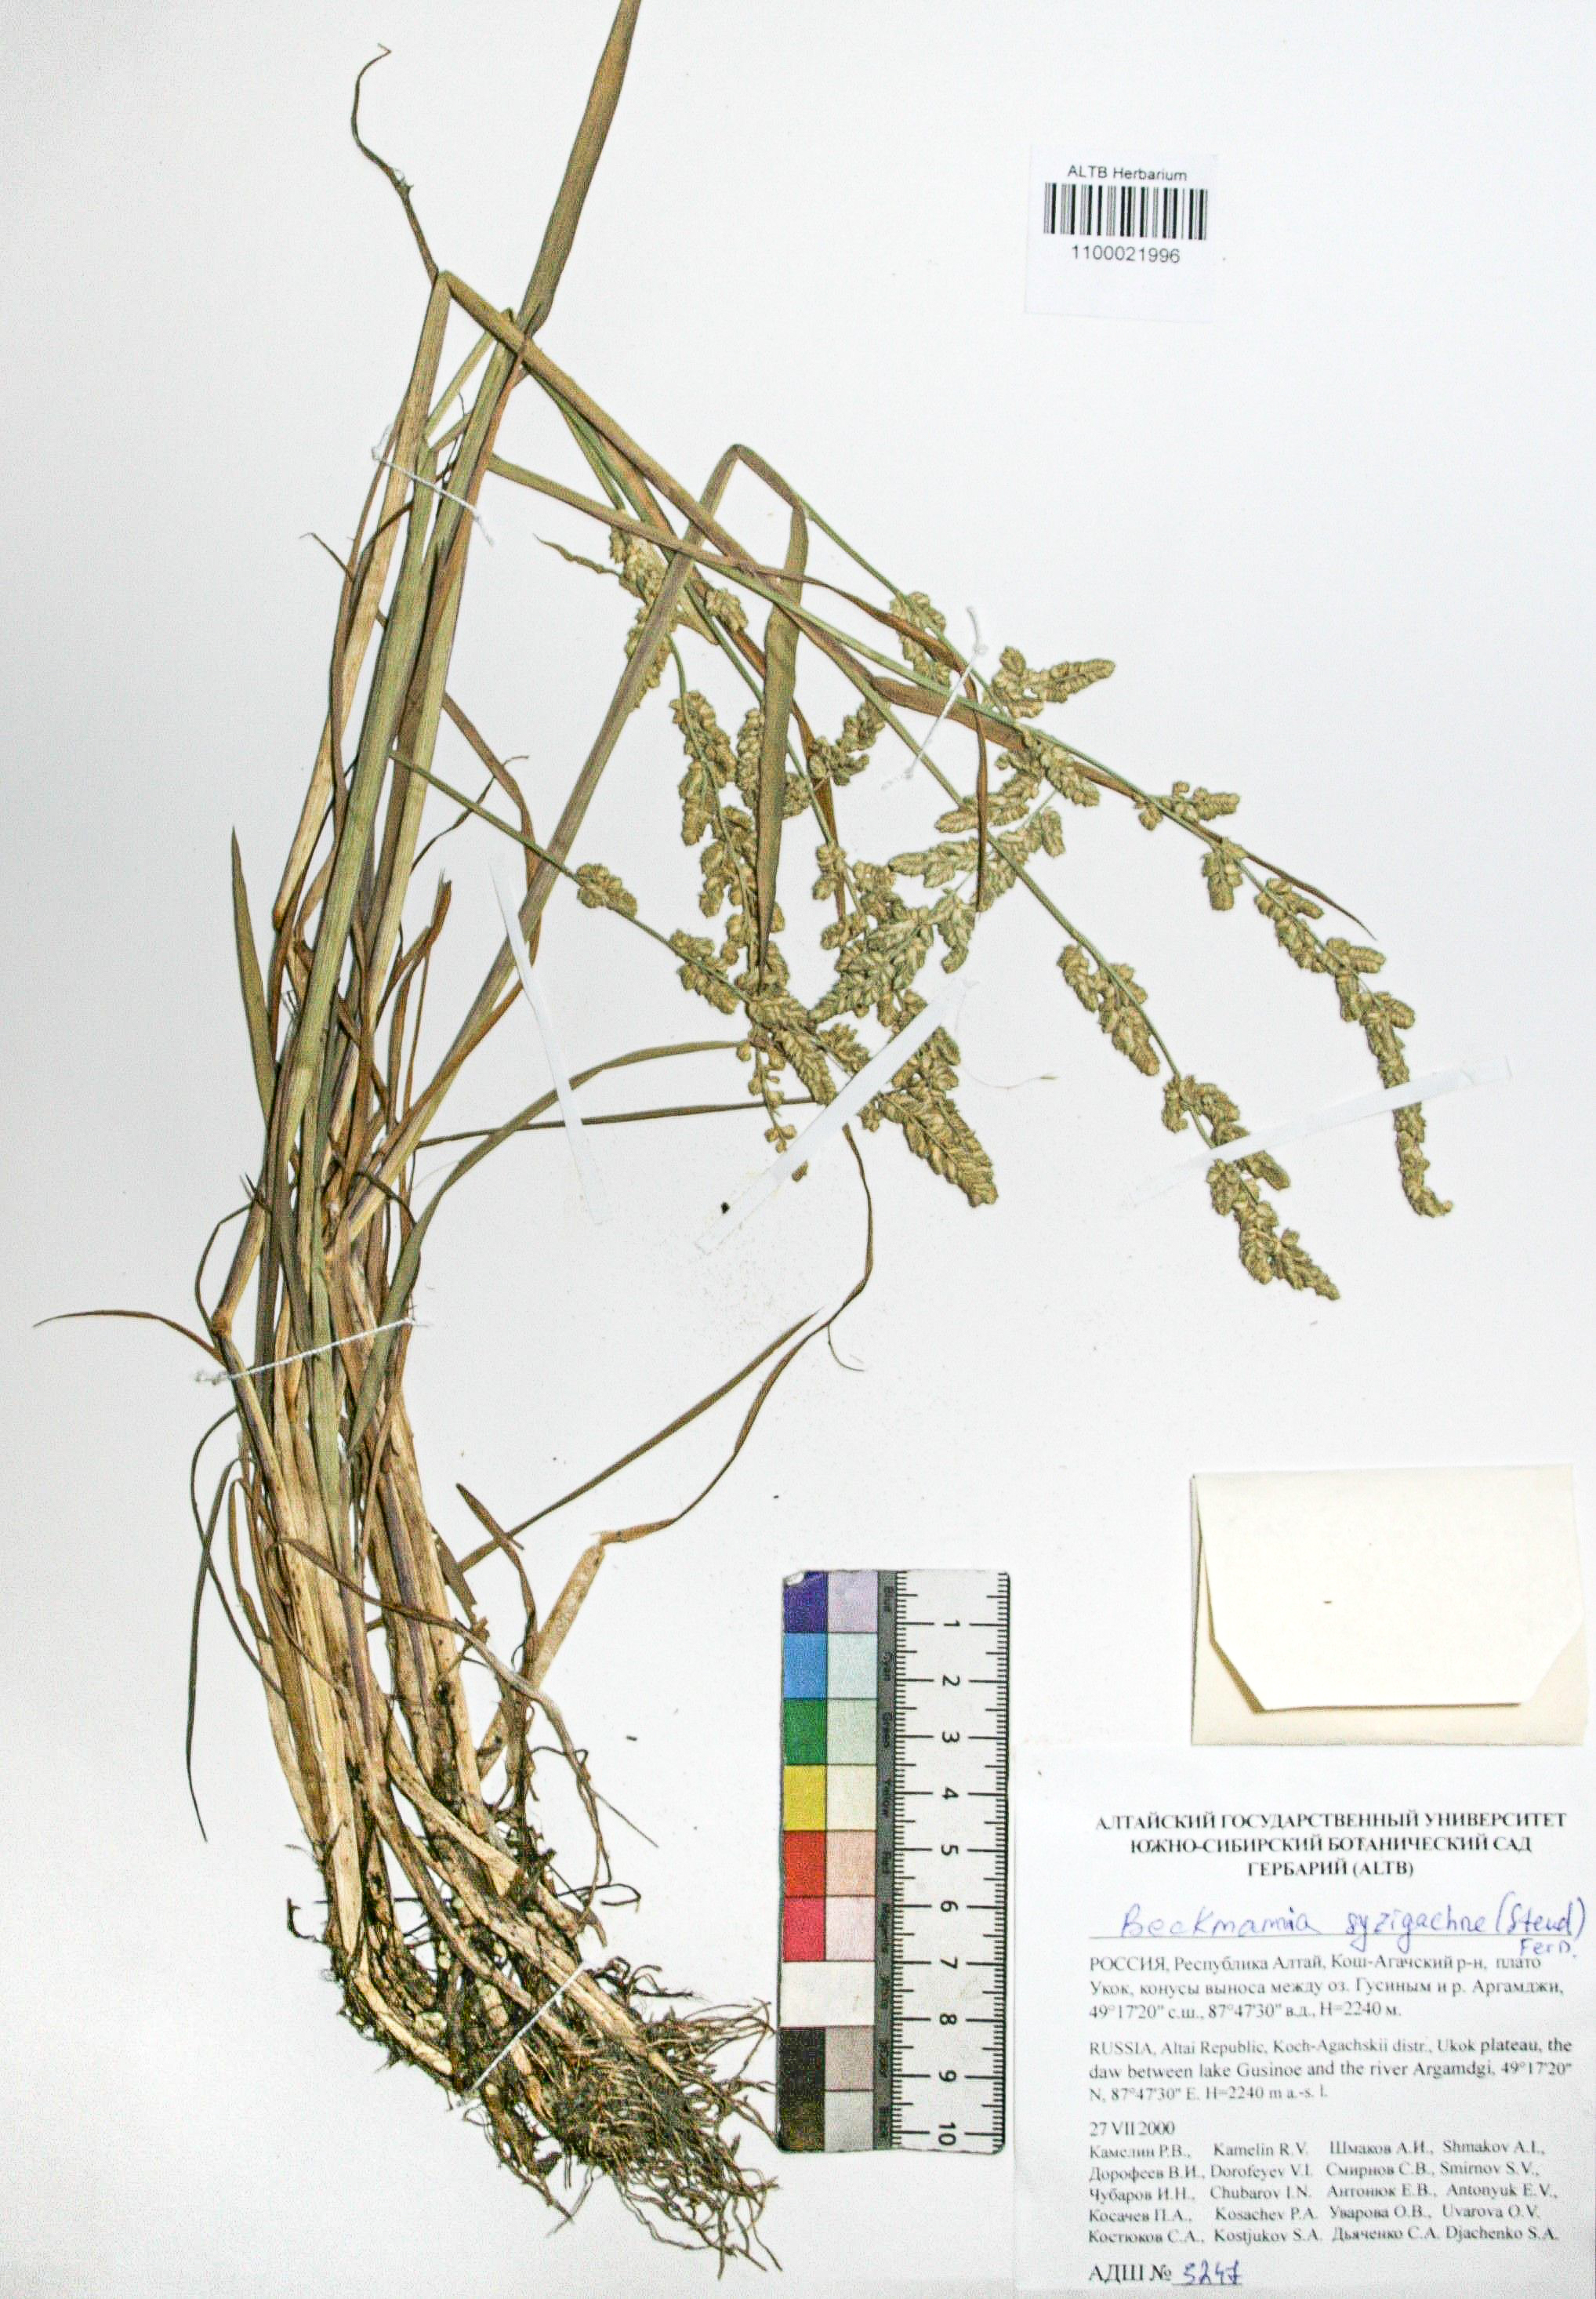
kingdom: Plantae
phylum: Tracheophyta
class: Liliopsida
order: Poales
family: Poaceae
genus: Beckmannia
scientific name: Beckmannia syzigachne
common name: American slough-grass
